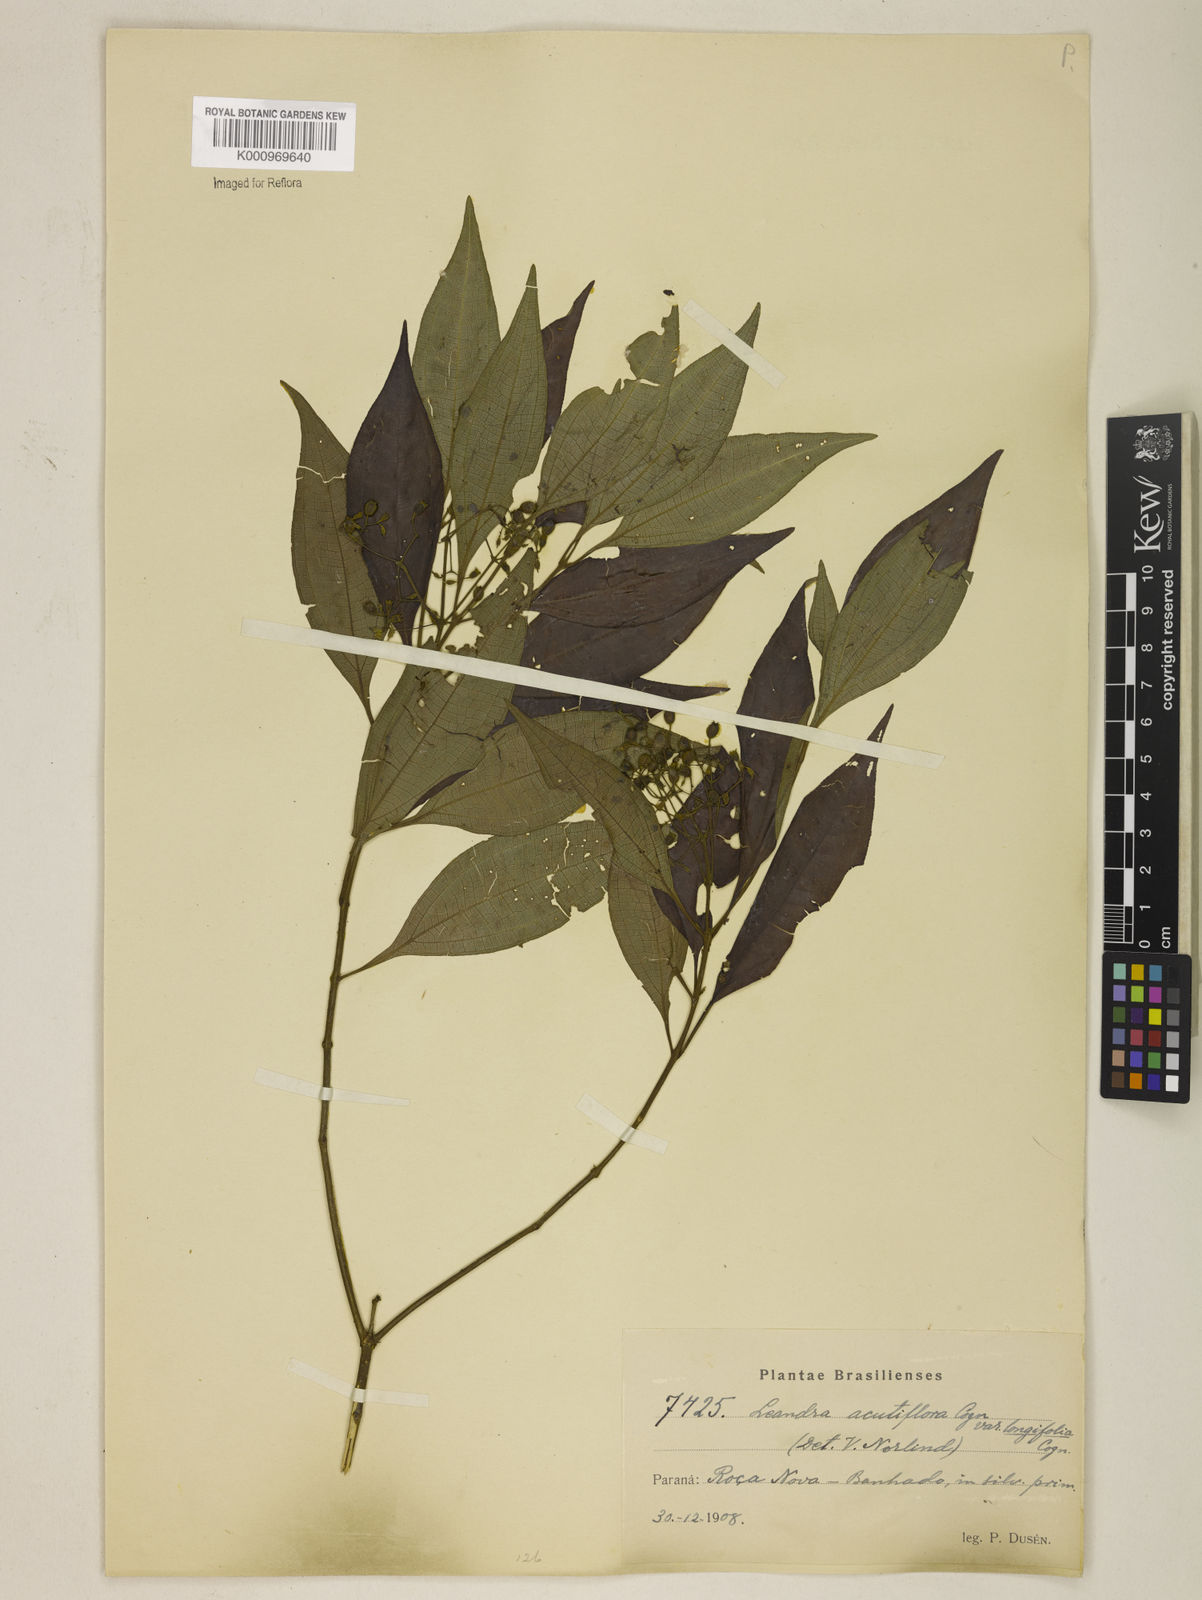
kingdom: Plantae
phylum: Tracheophyta
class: Magnoliopsida
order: Myrtales
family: Melastomataceae
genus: Miconia
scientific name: Miconia acutiflora
